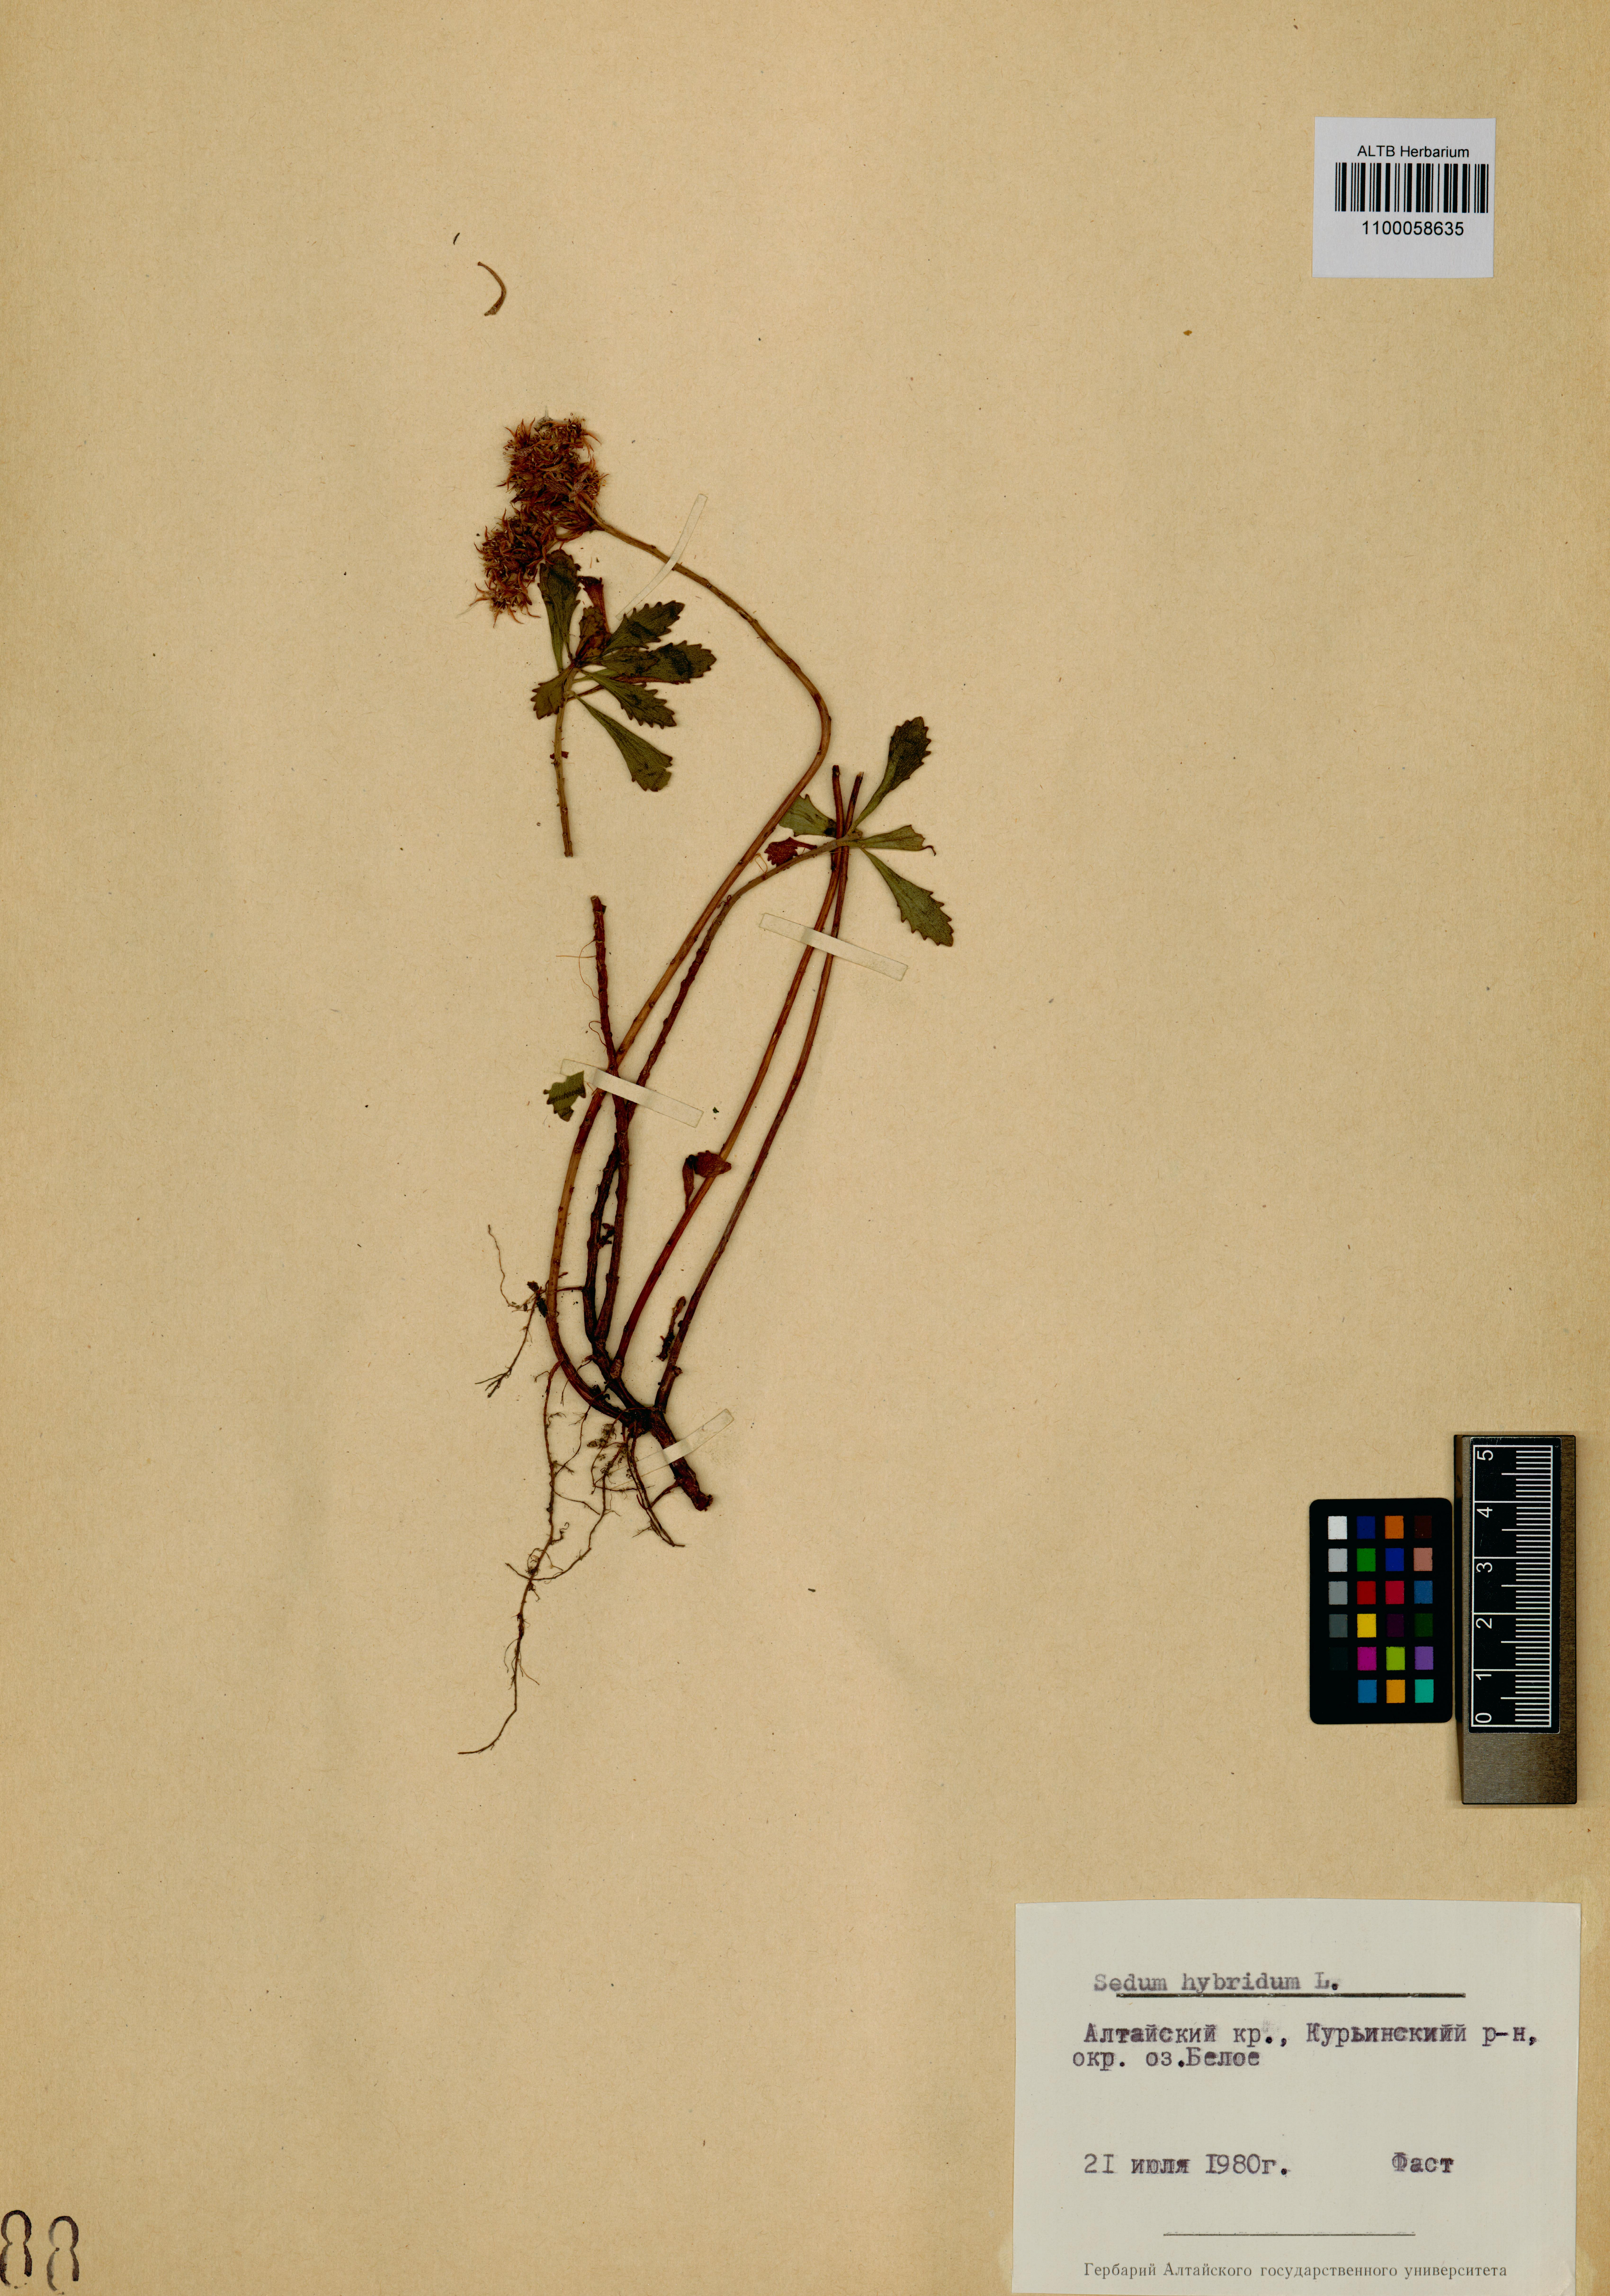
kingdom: Plantae
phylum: Tracheophyta
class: Magnoliopsida
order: Saxifragales
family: Crassulaceae
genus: Phedimus
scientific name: Phedimus hybridus
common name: Hybrid stonecrop
